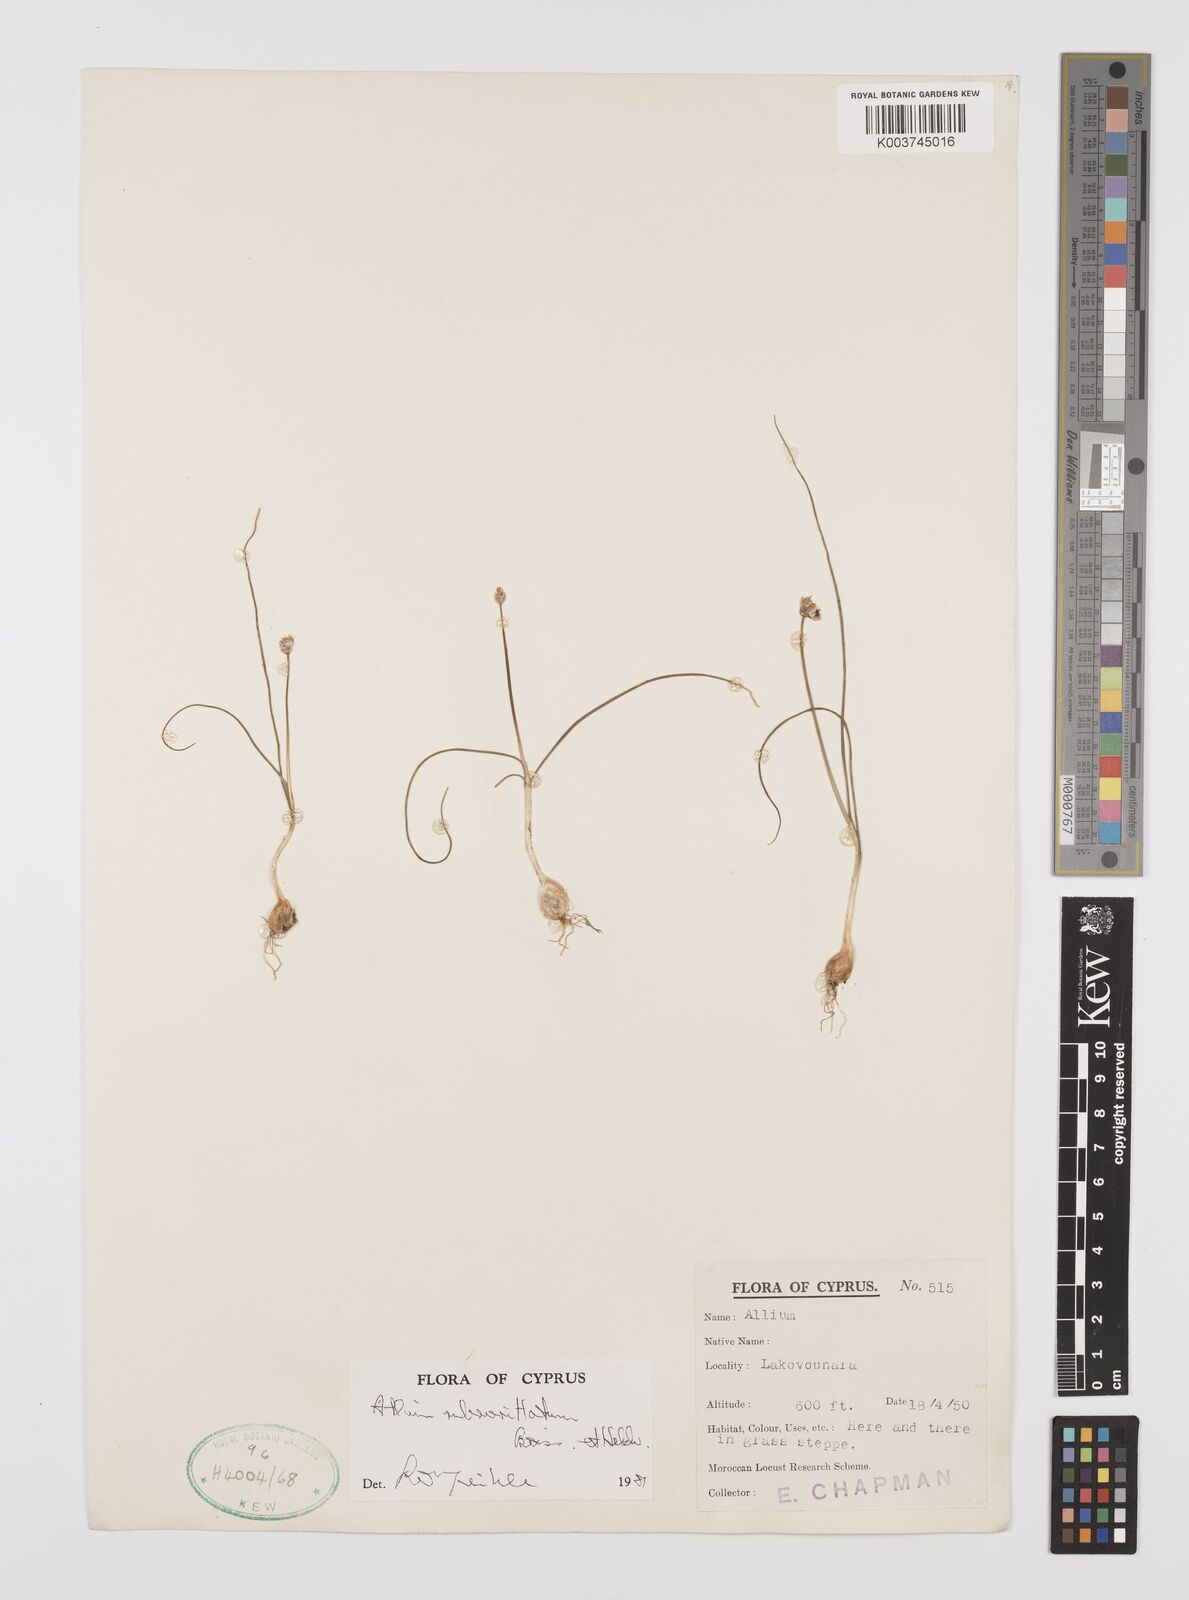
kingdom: Plantae
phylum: Tracheophyta
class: Liliopsida
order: Asparagales
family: Amaryllidaceae
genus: Allium
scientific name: Allium rubrovittatum
